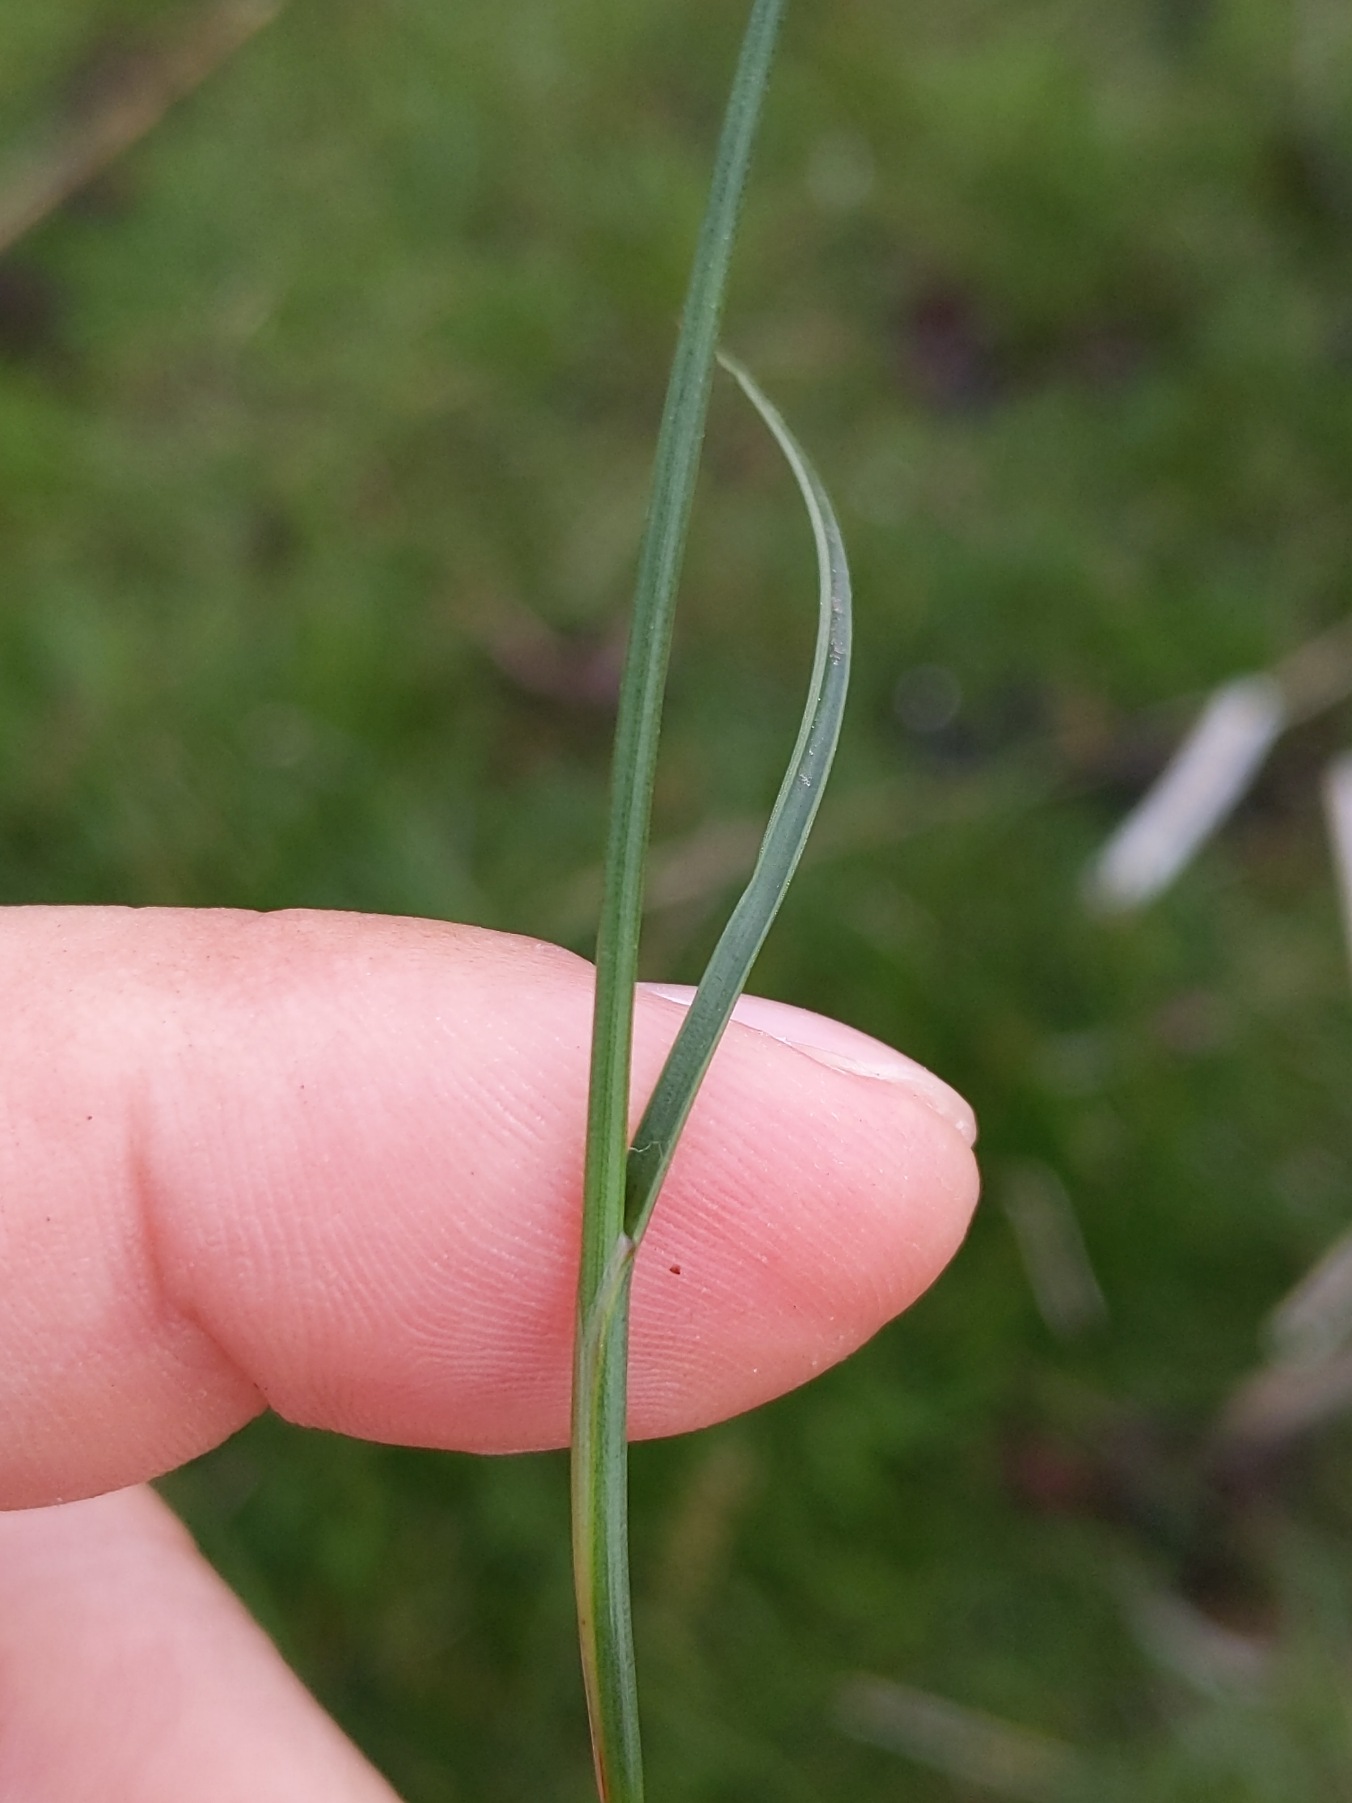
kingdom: Plantae
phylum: Tracheophyta
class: Liliopsida
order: Poales
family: Juncaceae
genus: Juncus
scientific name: Juncus gerardi
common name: Harril
